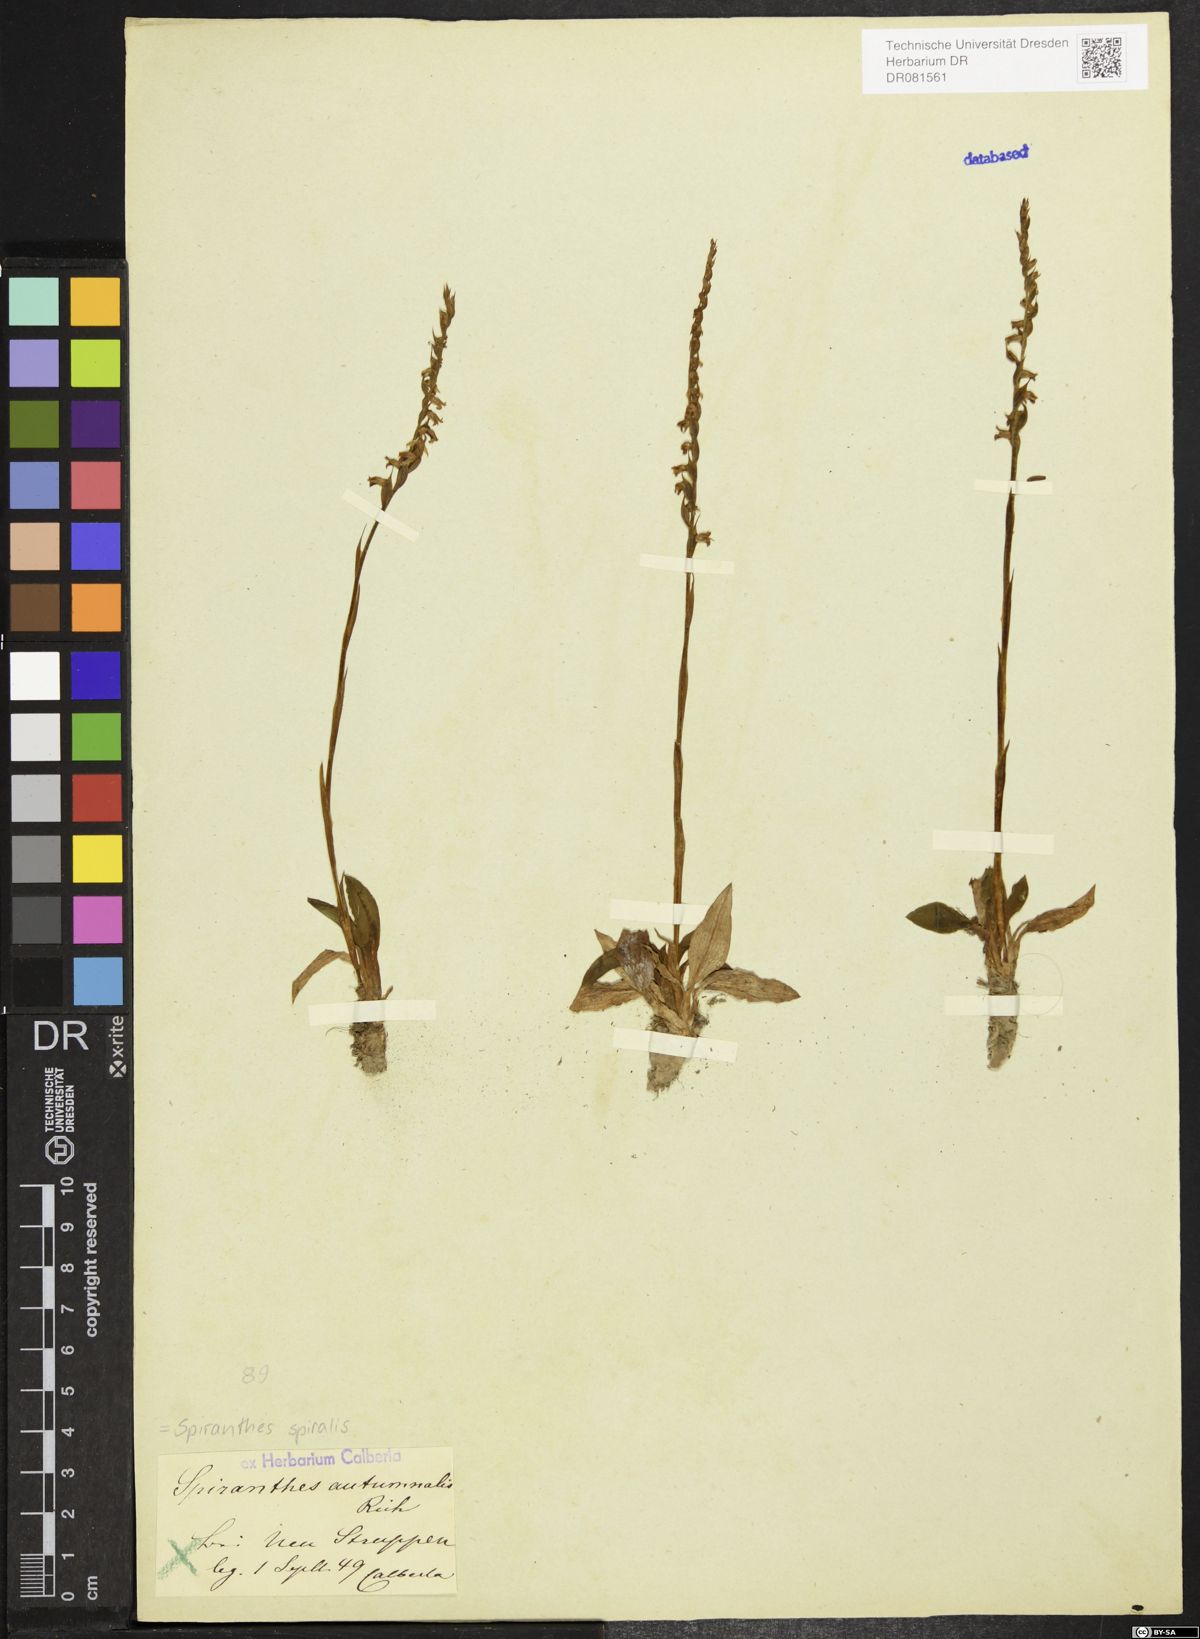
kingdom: Plantae
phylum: Tracheophyta
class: Liliopsida
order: Asparagales
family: Orchidaceae
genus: Spiranthes
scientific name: Spiranthes spiralis
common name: Autumn lady's-tresses
